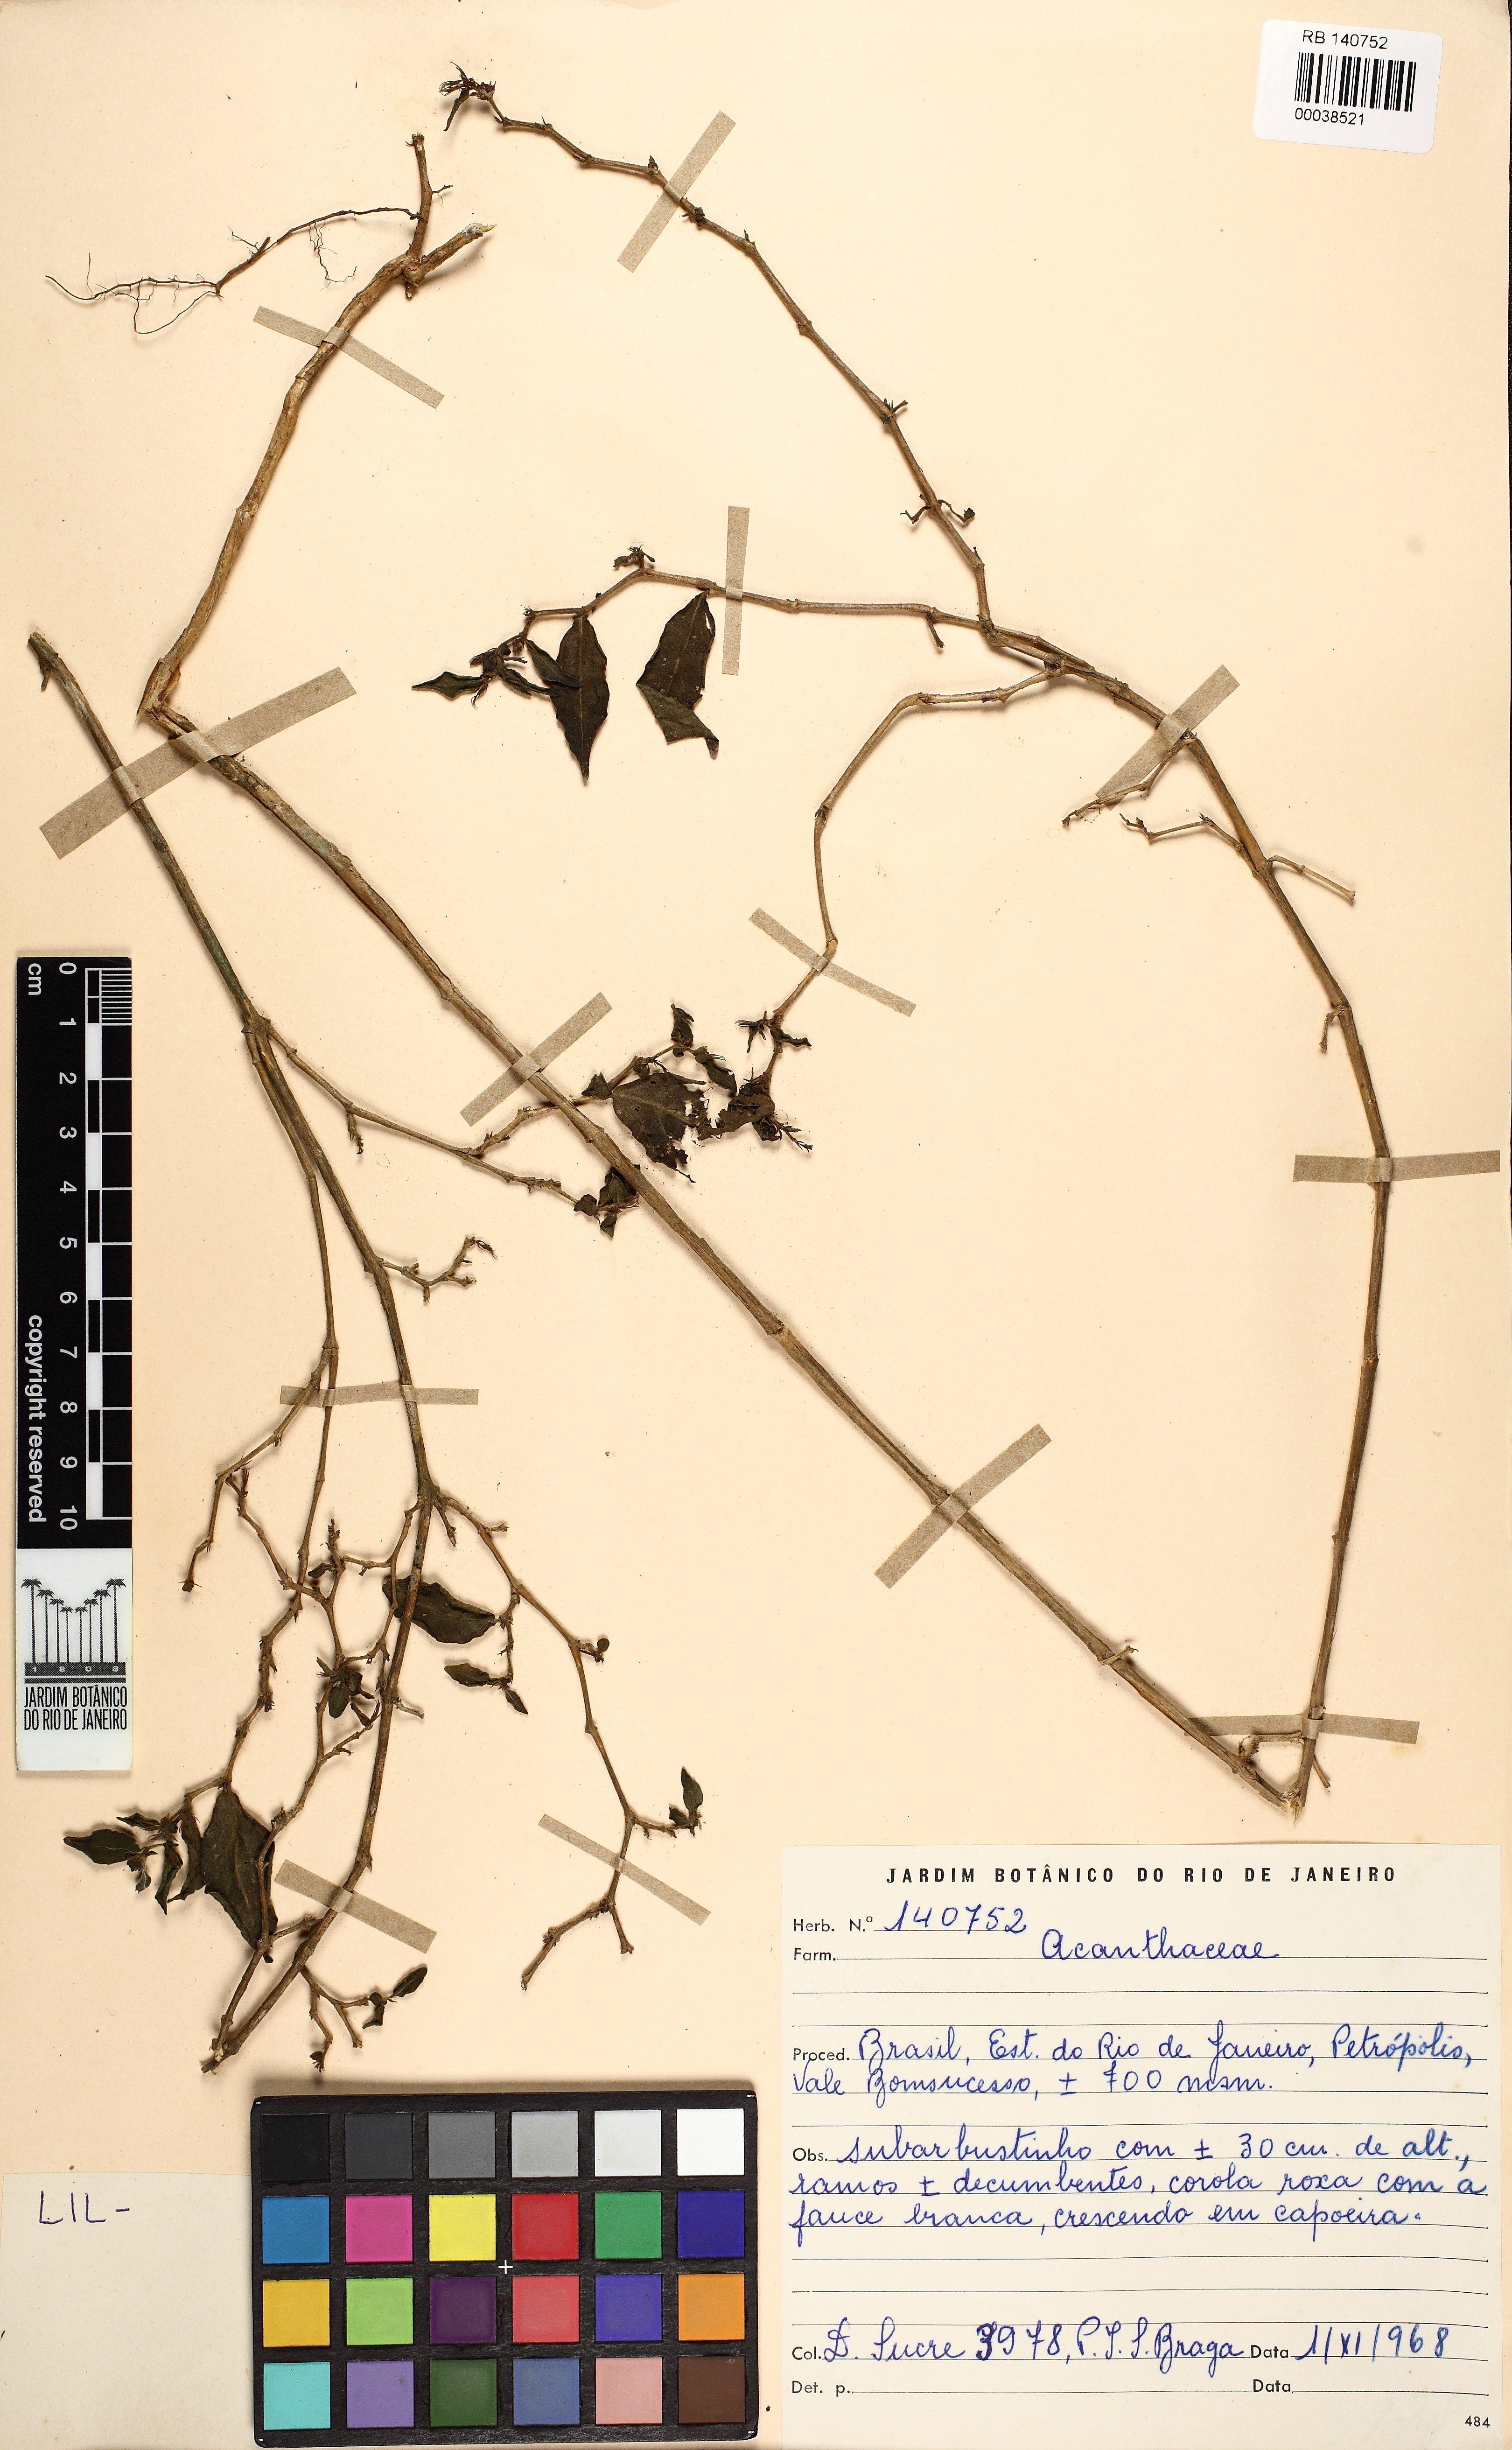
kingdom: Plantae
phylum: Tracheophyta
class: Magnoliopsida
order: Lamiales
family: Acanthaceae
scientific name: Acanthaceae
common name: Acanthaceae
